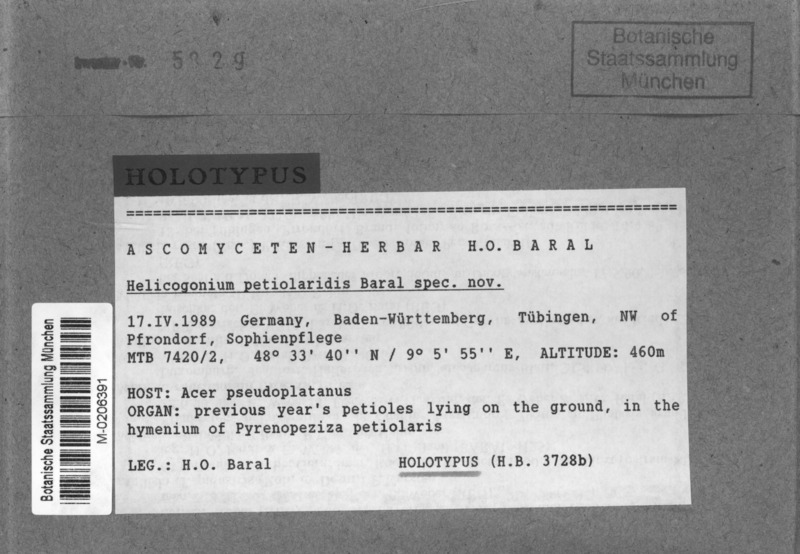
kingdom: Fungi
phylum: Ascomycota
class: Leotiomycetes
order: Phacidiales
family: Helicogoniaceae
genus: Helicogonium
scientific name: Helicogonium petiolaridis
